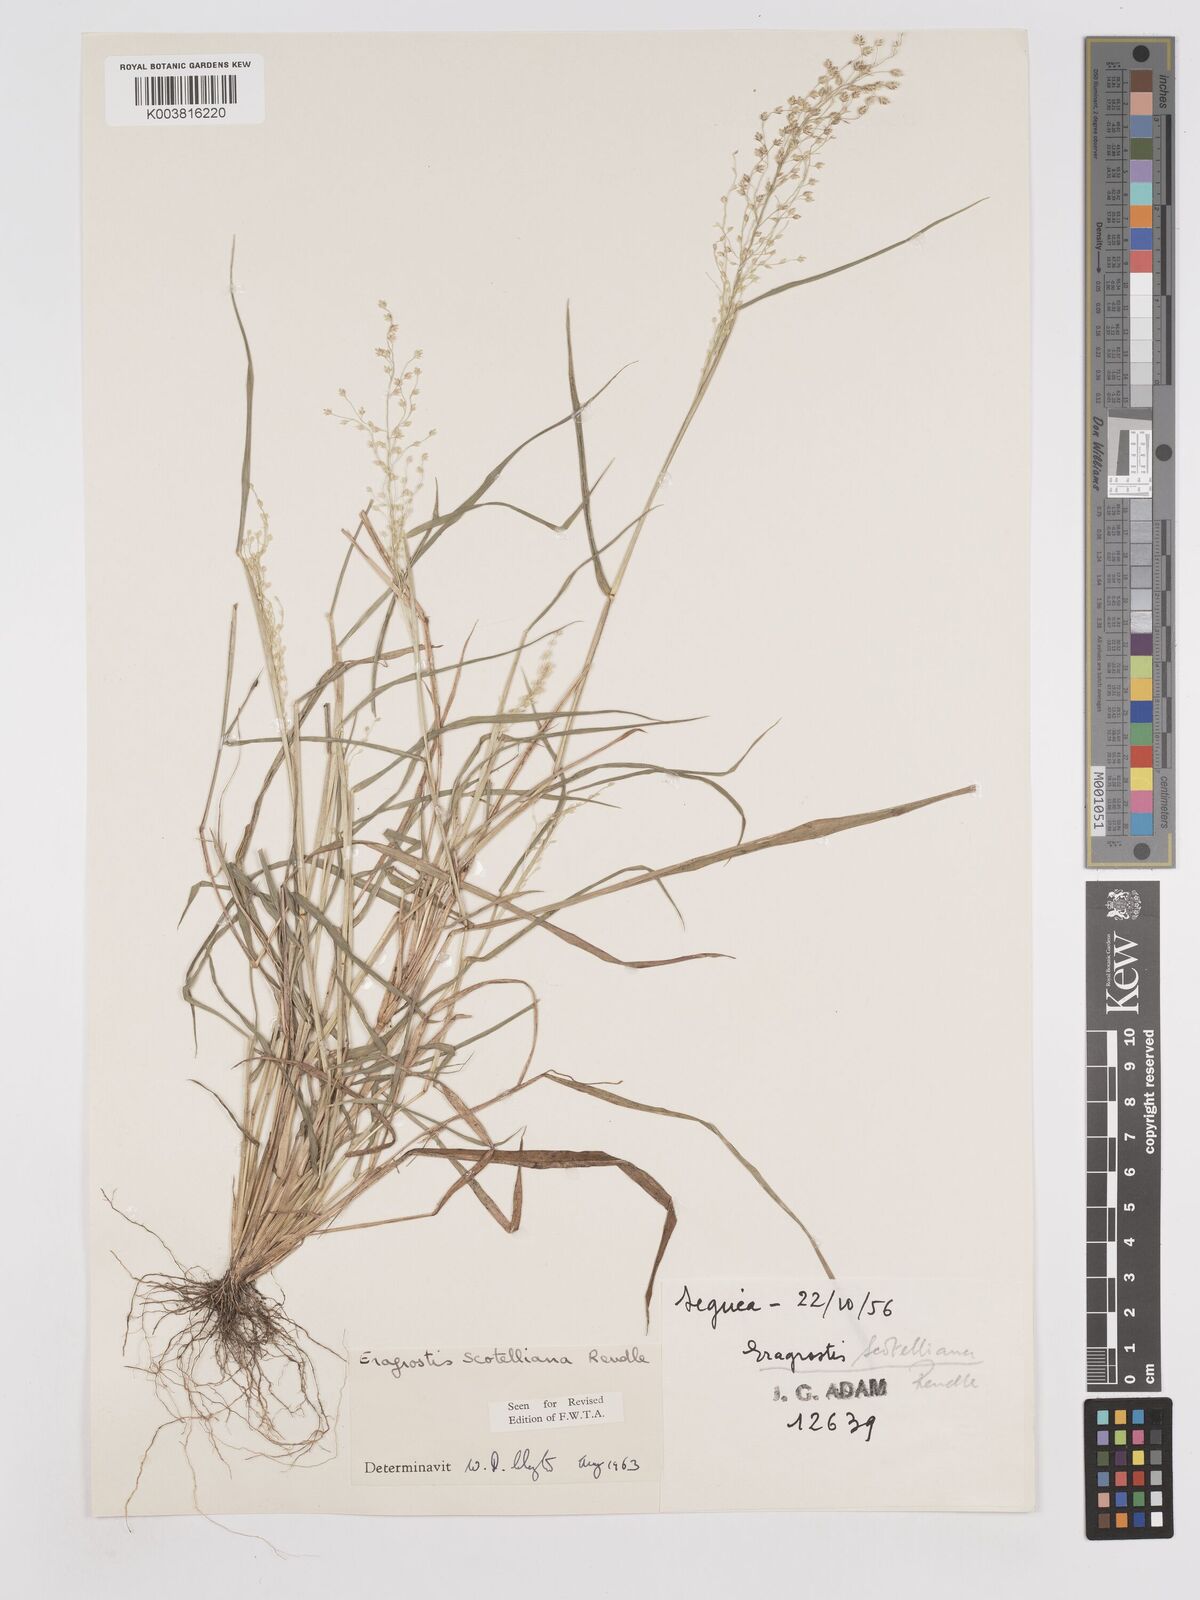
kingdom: Plantae
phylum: Tracheophyta
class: Liliopsida
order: Poales
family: Poaceae
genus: Eragrostis
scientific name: Eragrostis scotelliana
